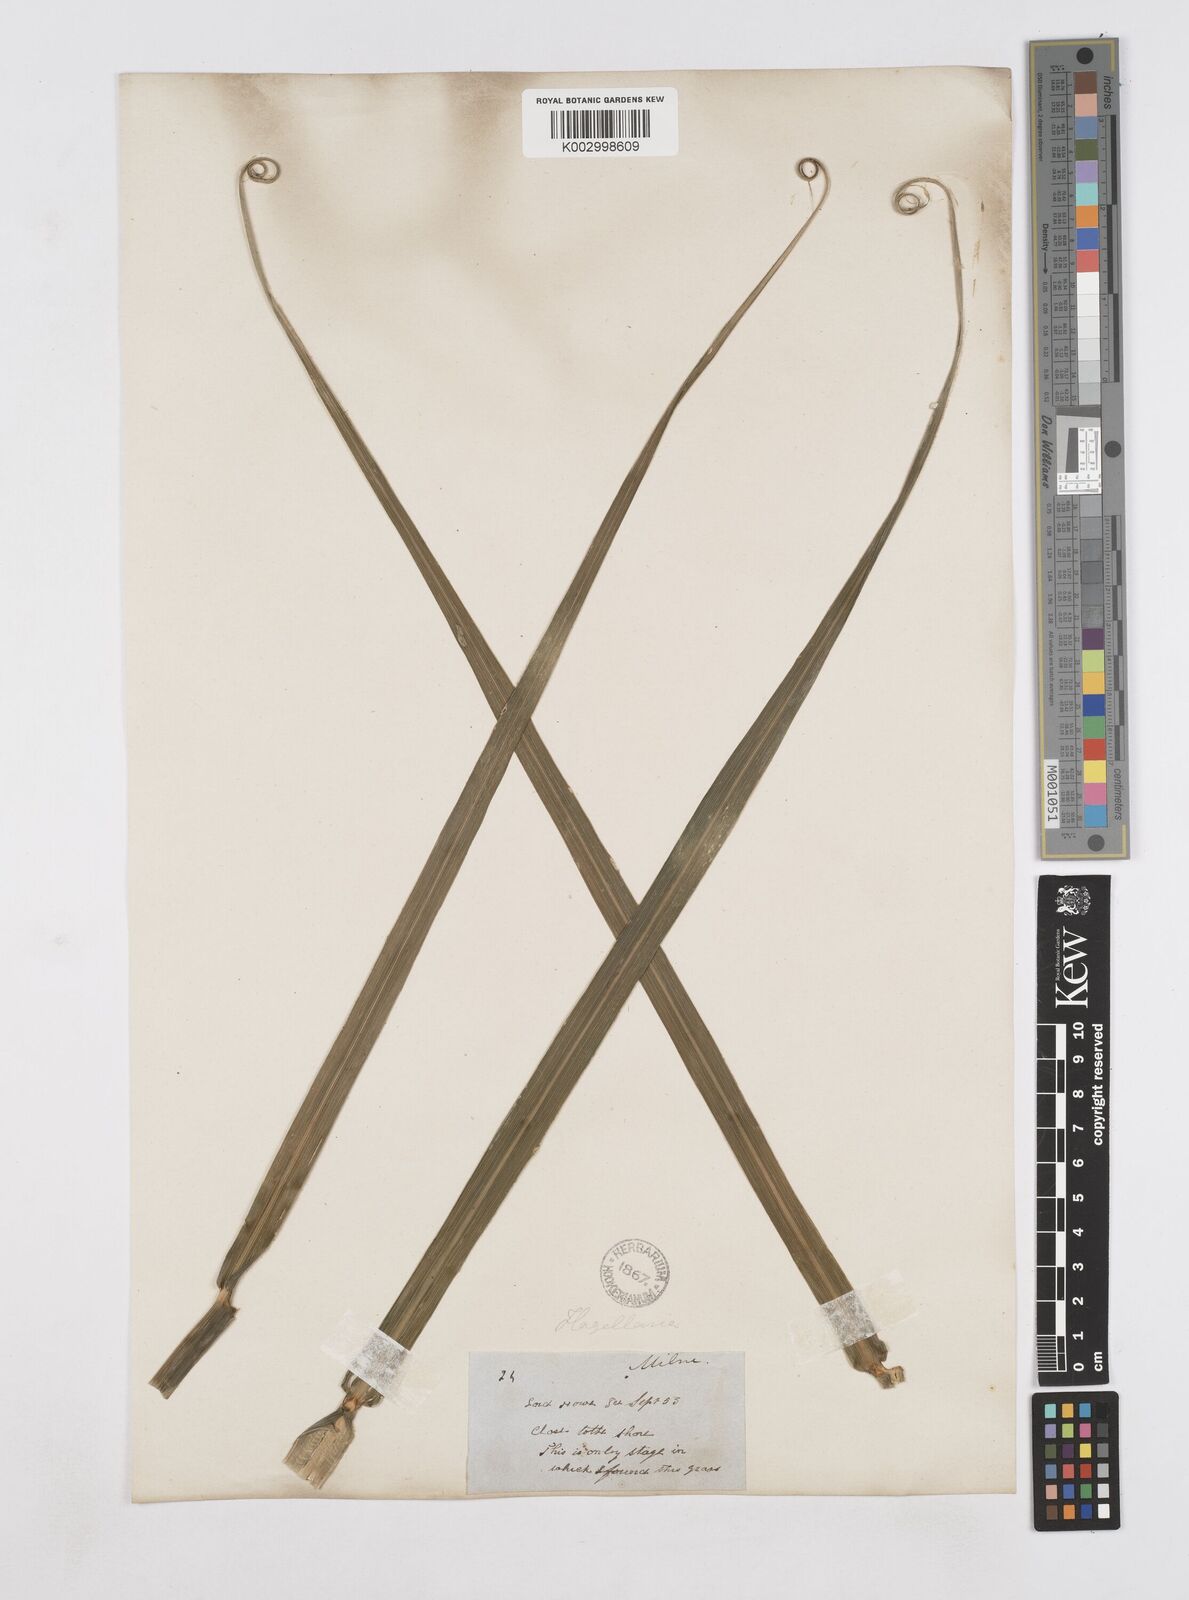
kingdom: Plantae
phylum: Tracheophyta
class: Liliopsida
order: Poales
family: Flagellariaceae
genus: Flagellaria
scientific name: Flagellaria indica
